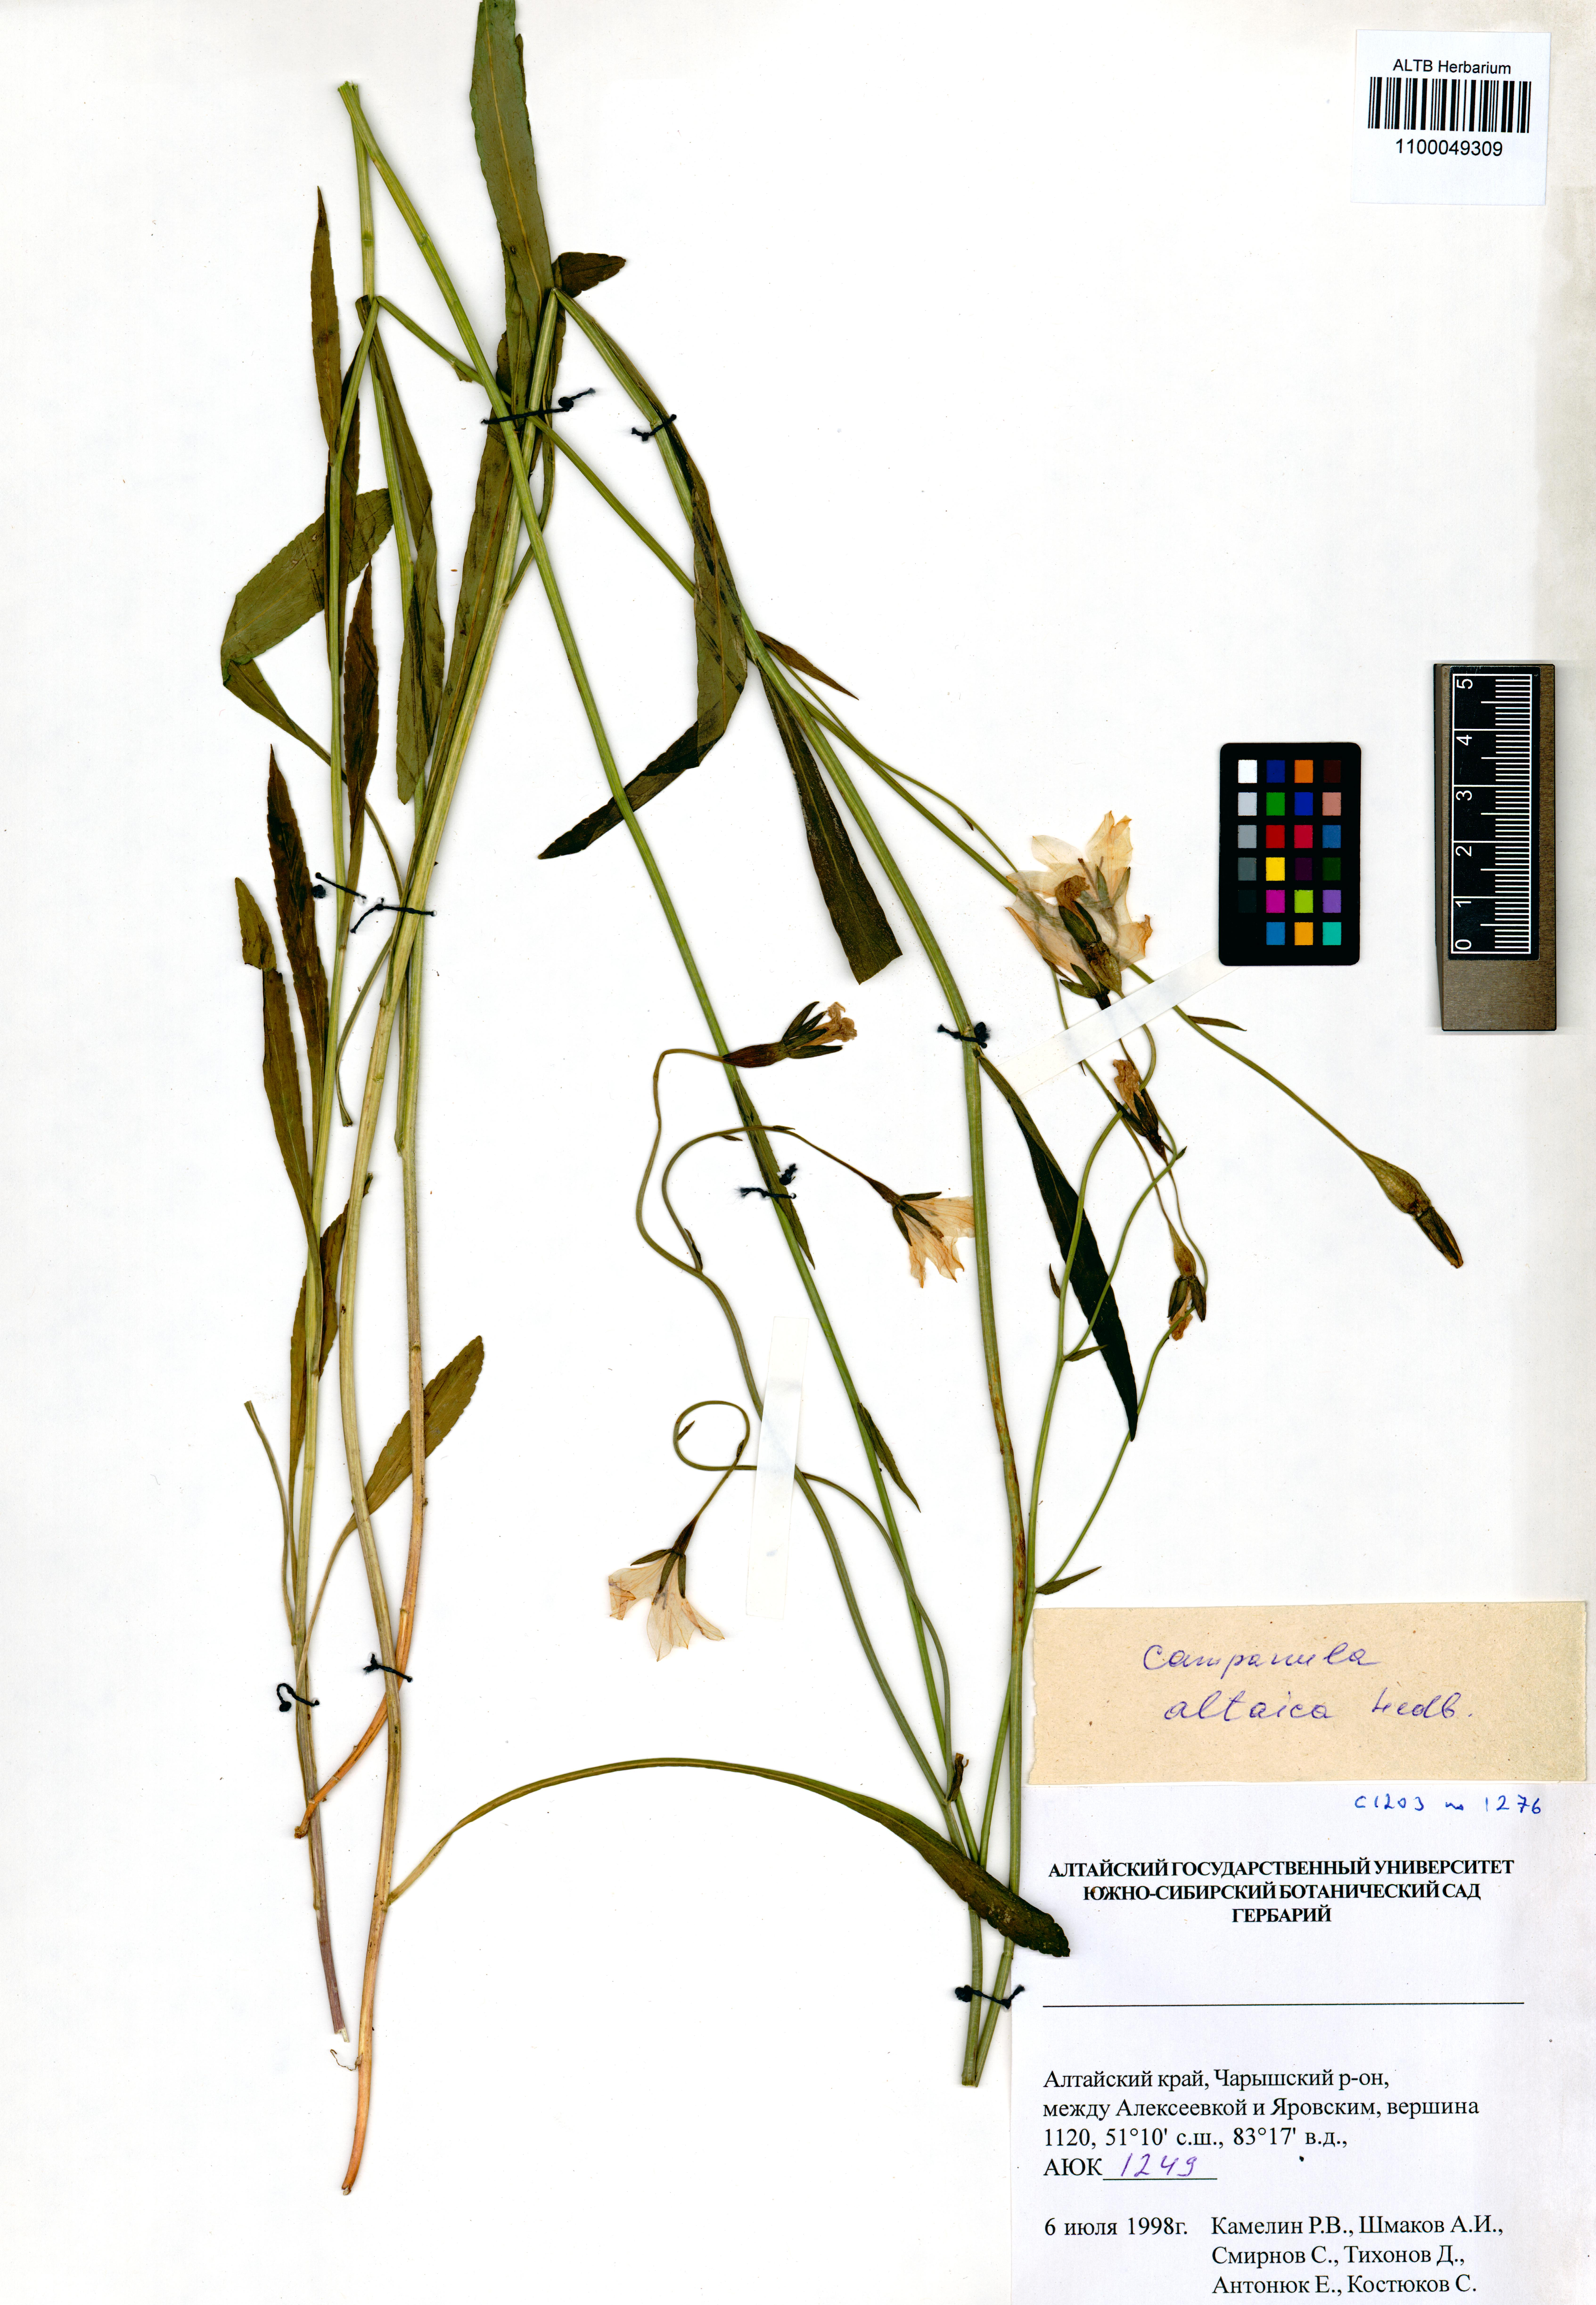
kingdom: Plantae
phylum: Tracheophyta
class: Magnoliopsida
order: Asterales
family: Campanulaceae
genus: Campanula
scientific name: Campanula stevenii
